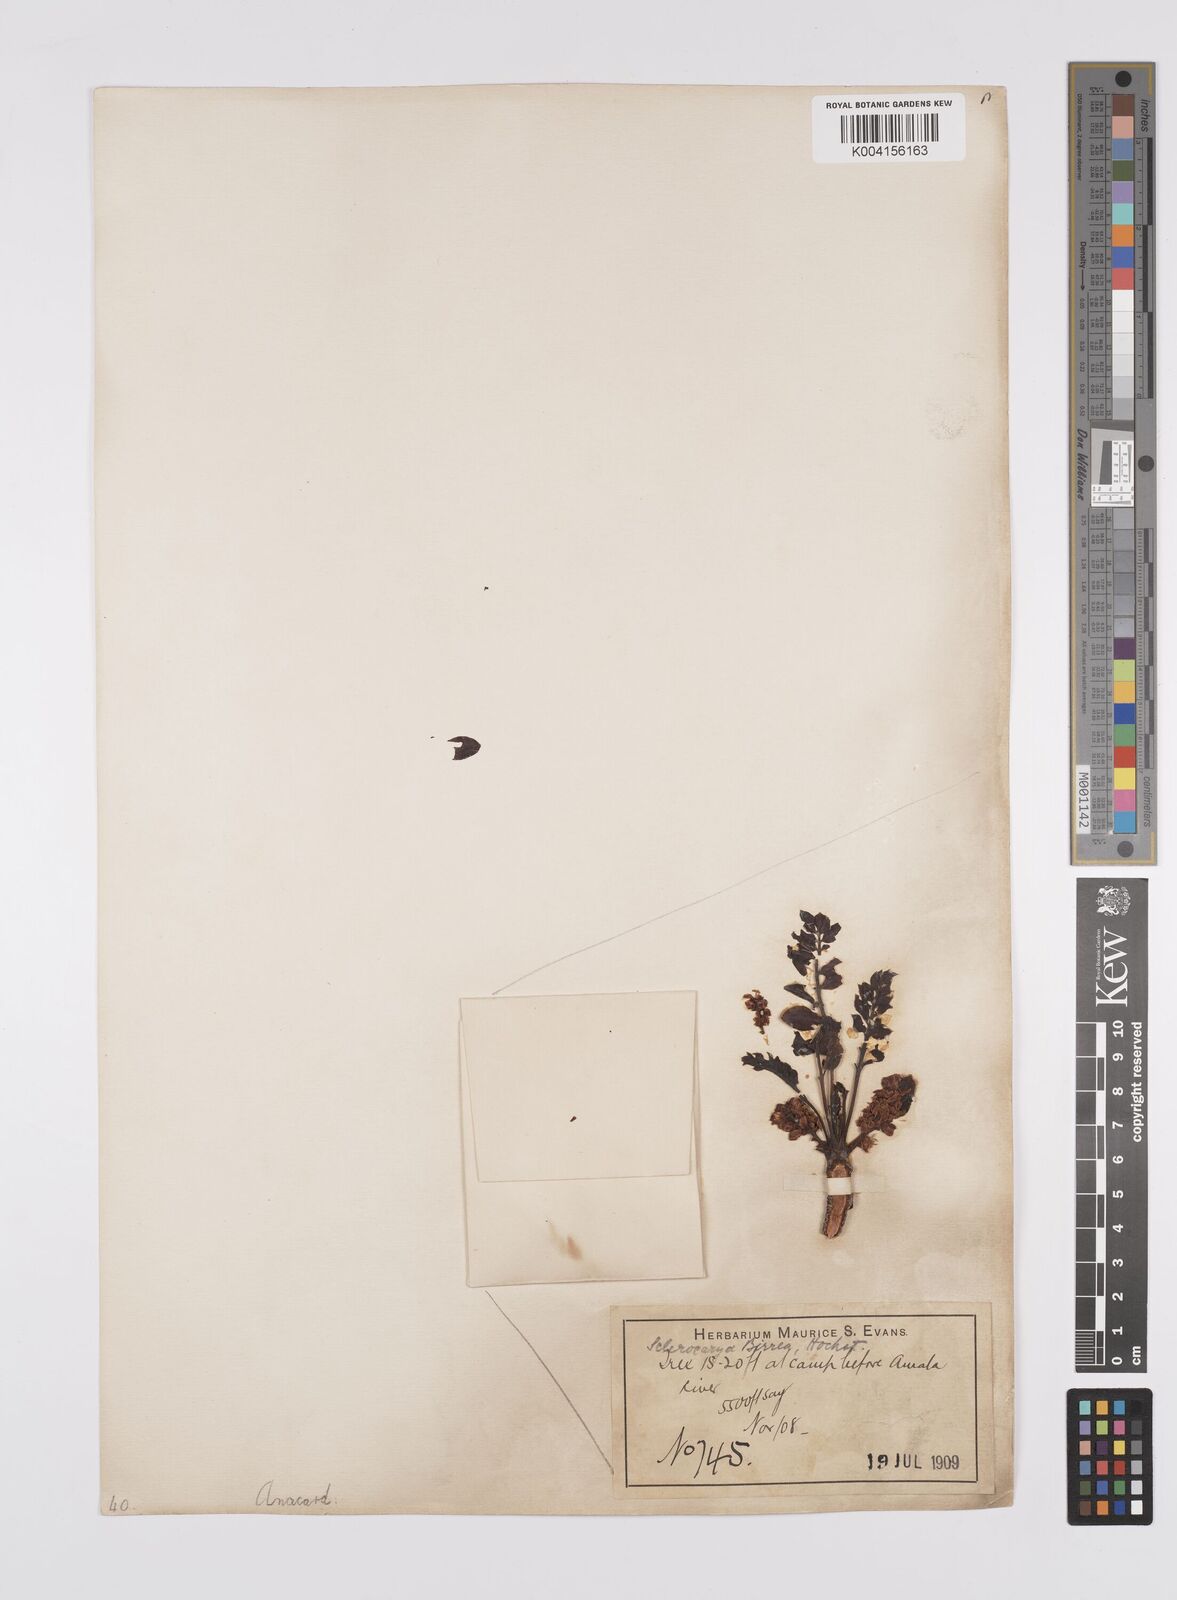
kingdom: Plantae
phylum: Tracheophyta
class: Magnoliopsida
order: Sapindales
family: Anacardiaceae
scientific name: Anacardiaceae
